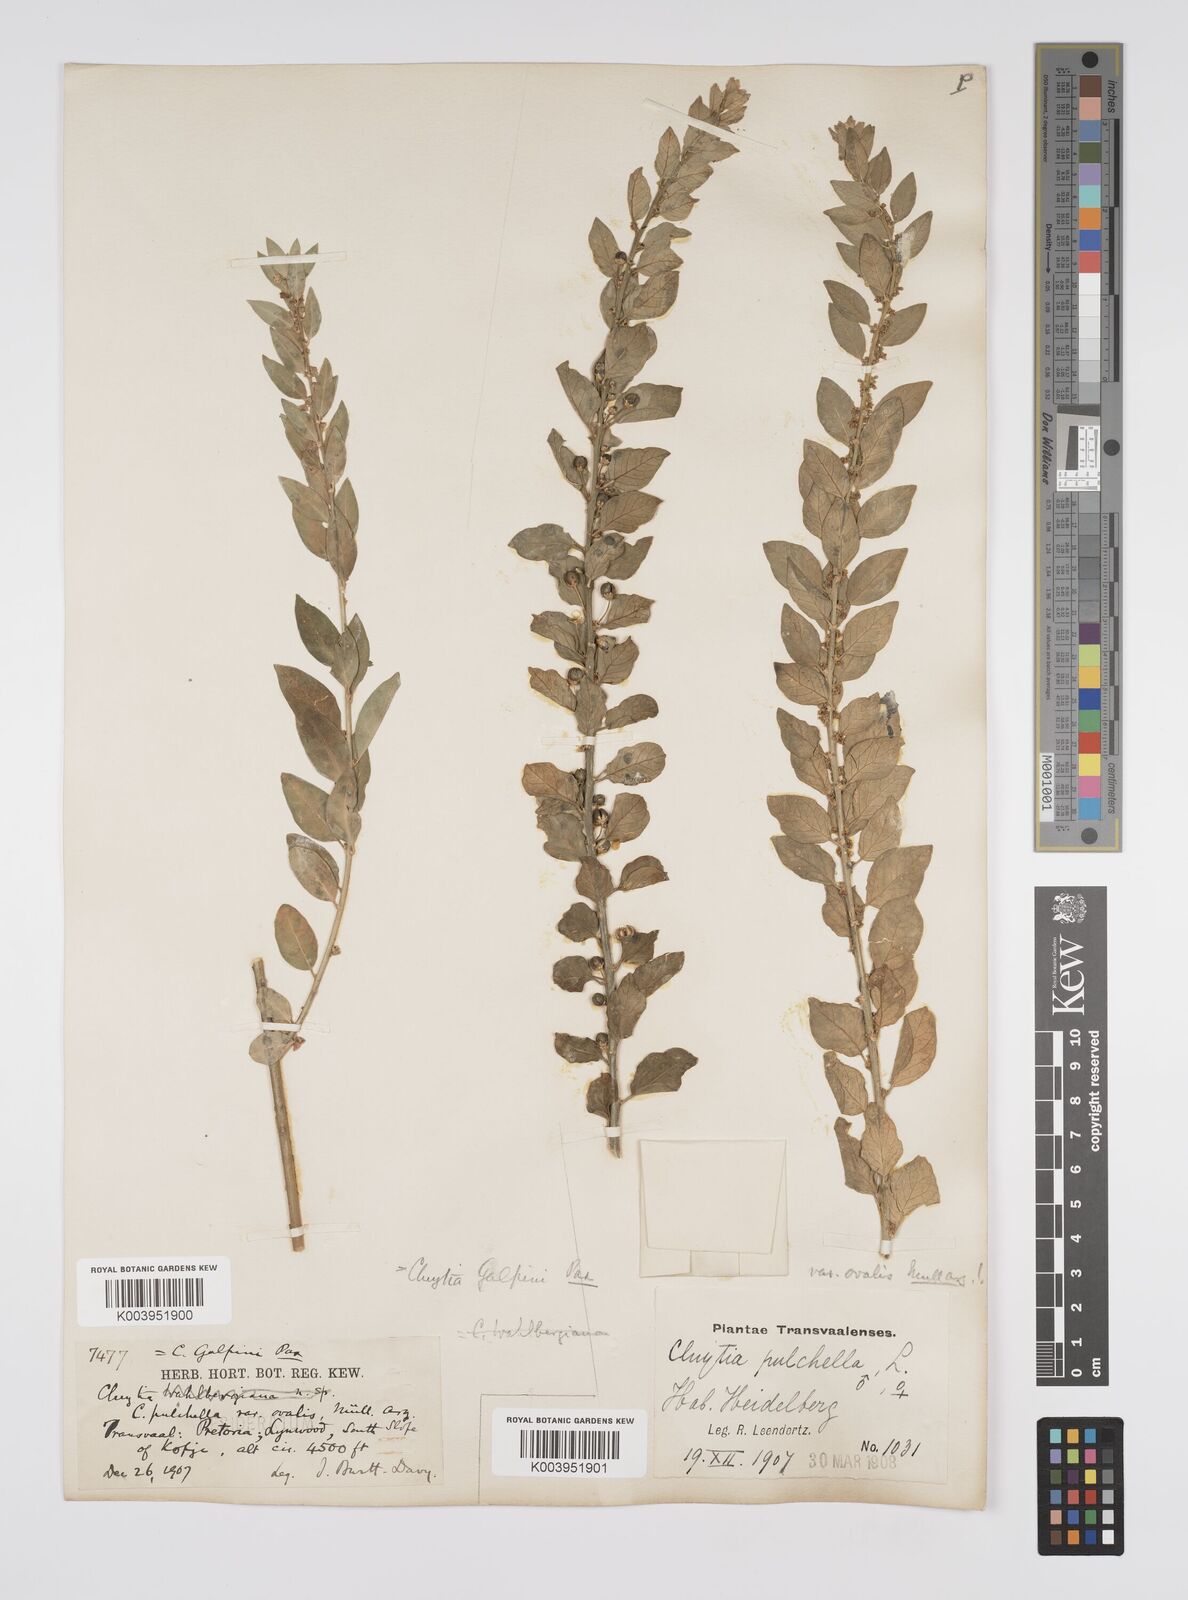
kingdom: Plantae
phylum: Tracheophyta
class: Magnoliopsida
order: Malpighiales
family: Peraceae
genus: Clutia
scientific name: Clutia galpinii
